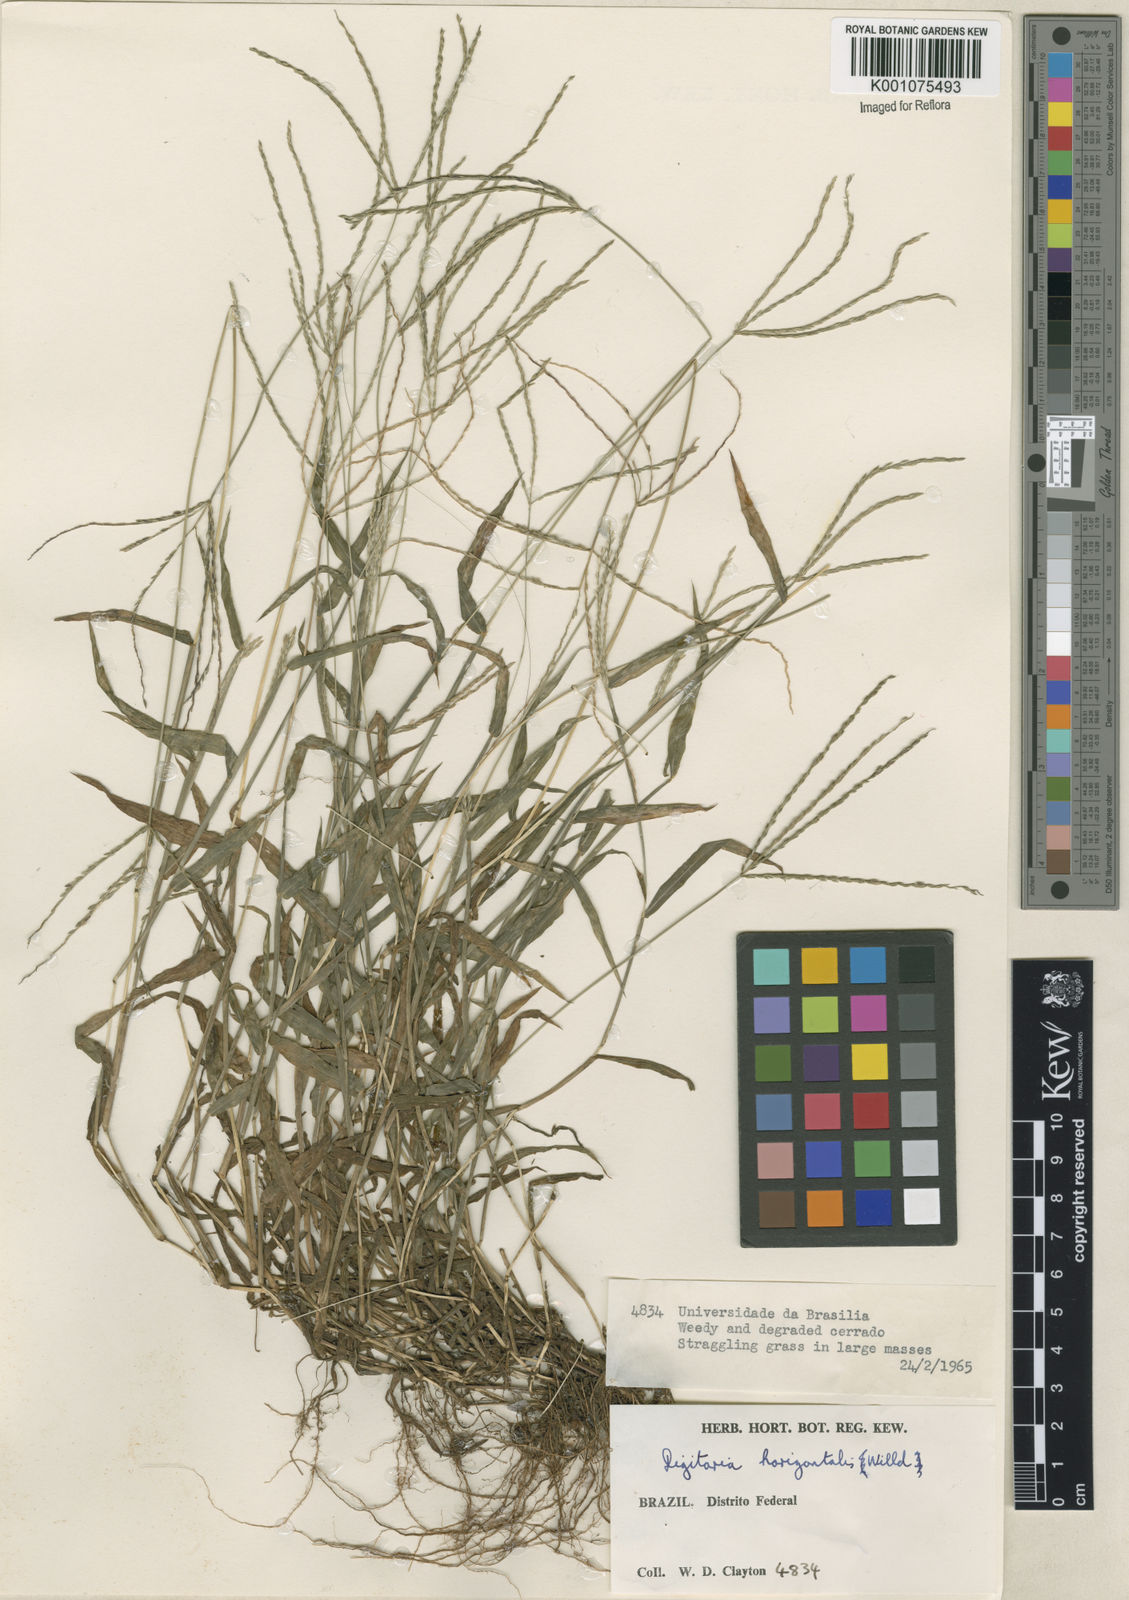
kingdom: Plantae
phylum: Tracheophyta
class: Liliopsida
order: Poales
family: Poaceae
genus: Digitaria
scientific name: Digitaria nuda
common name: Naked crabgrass
